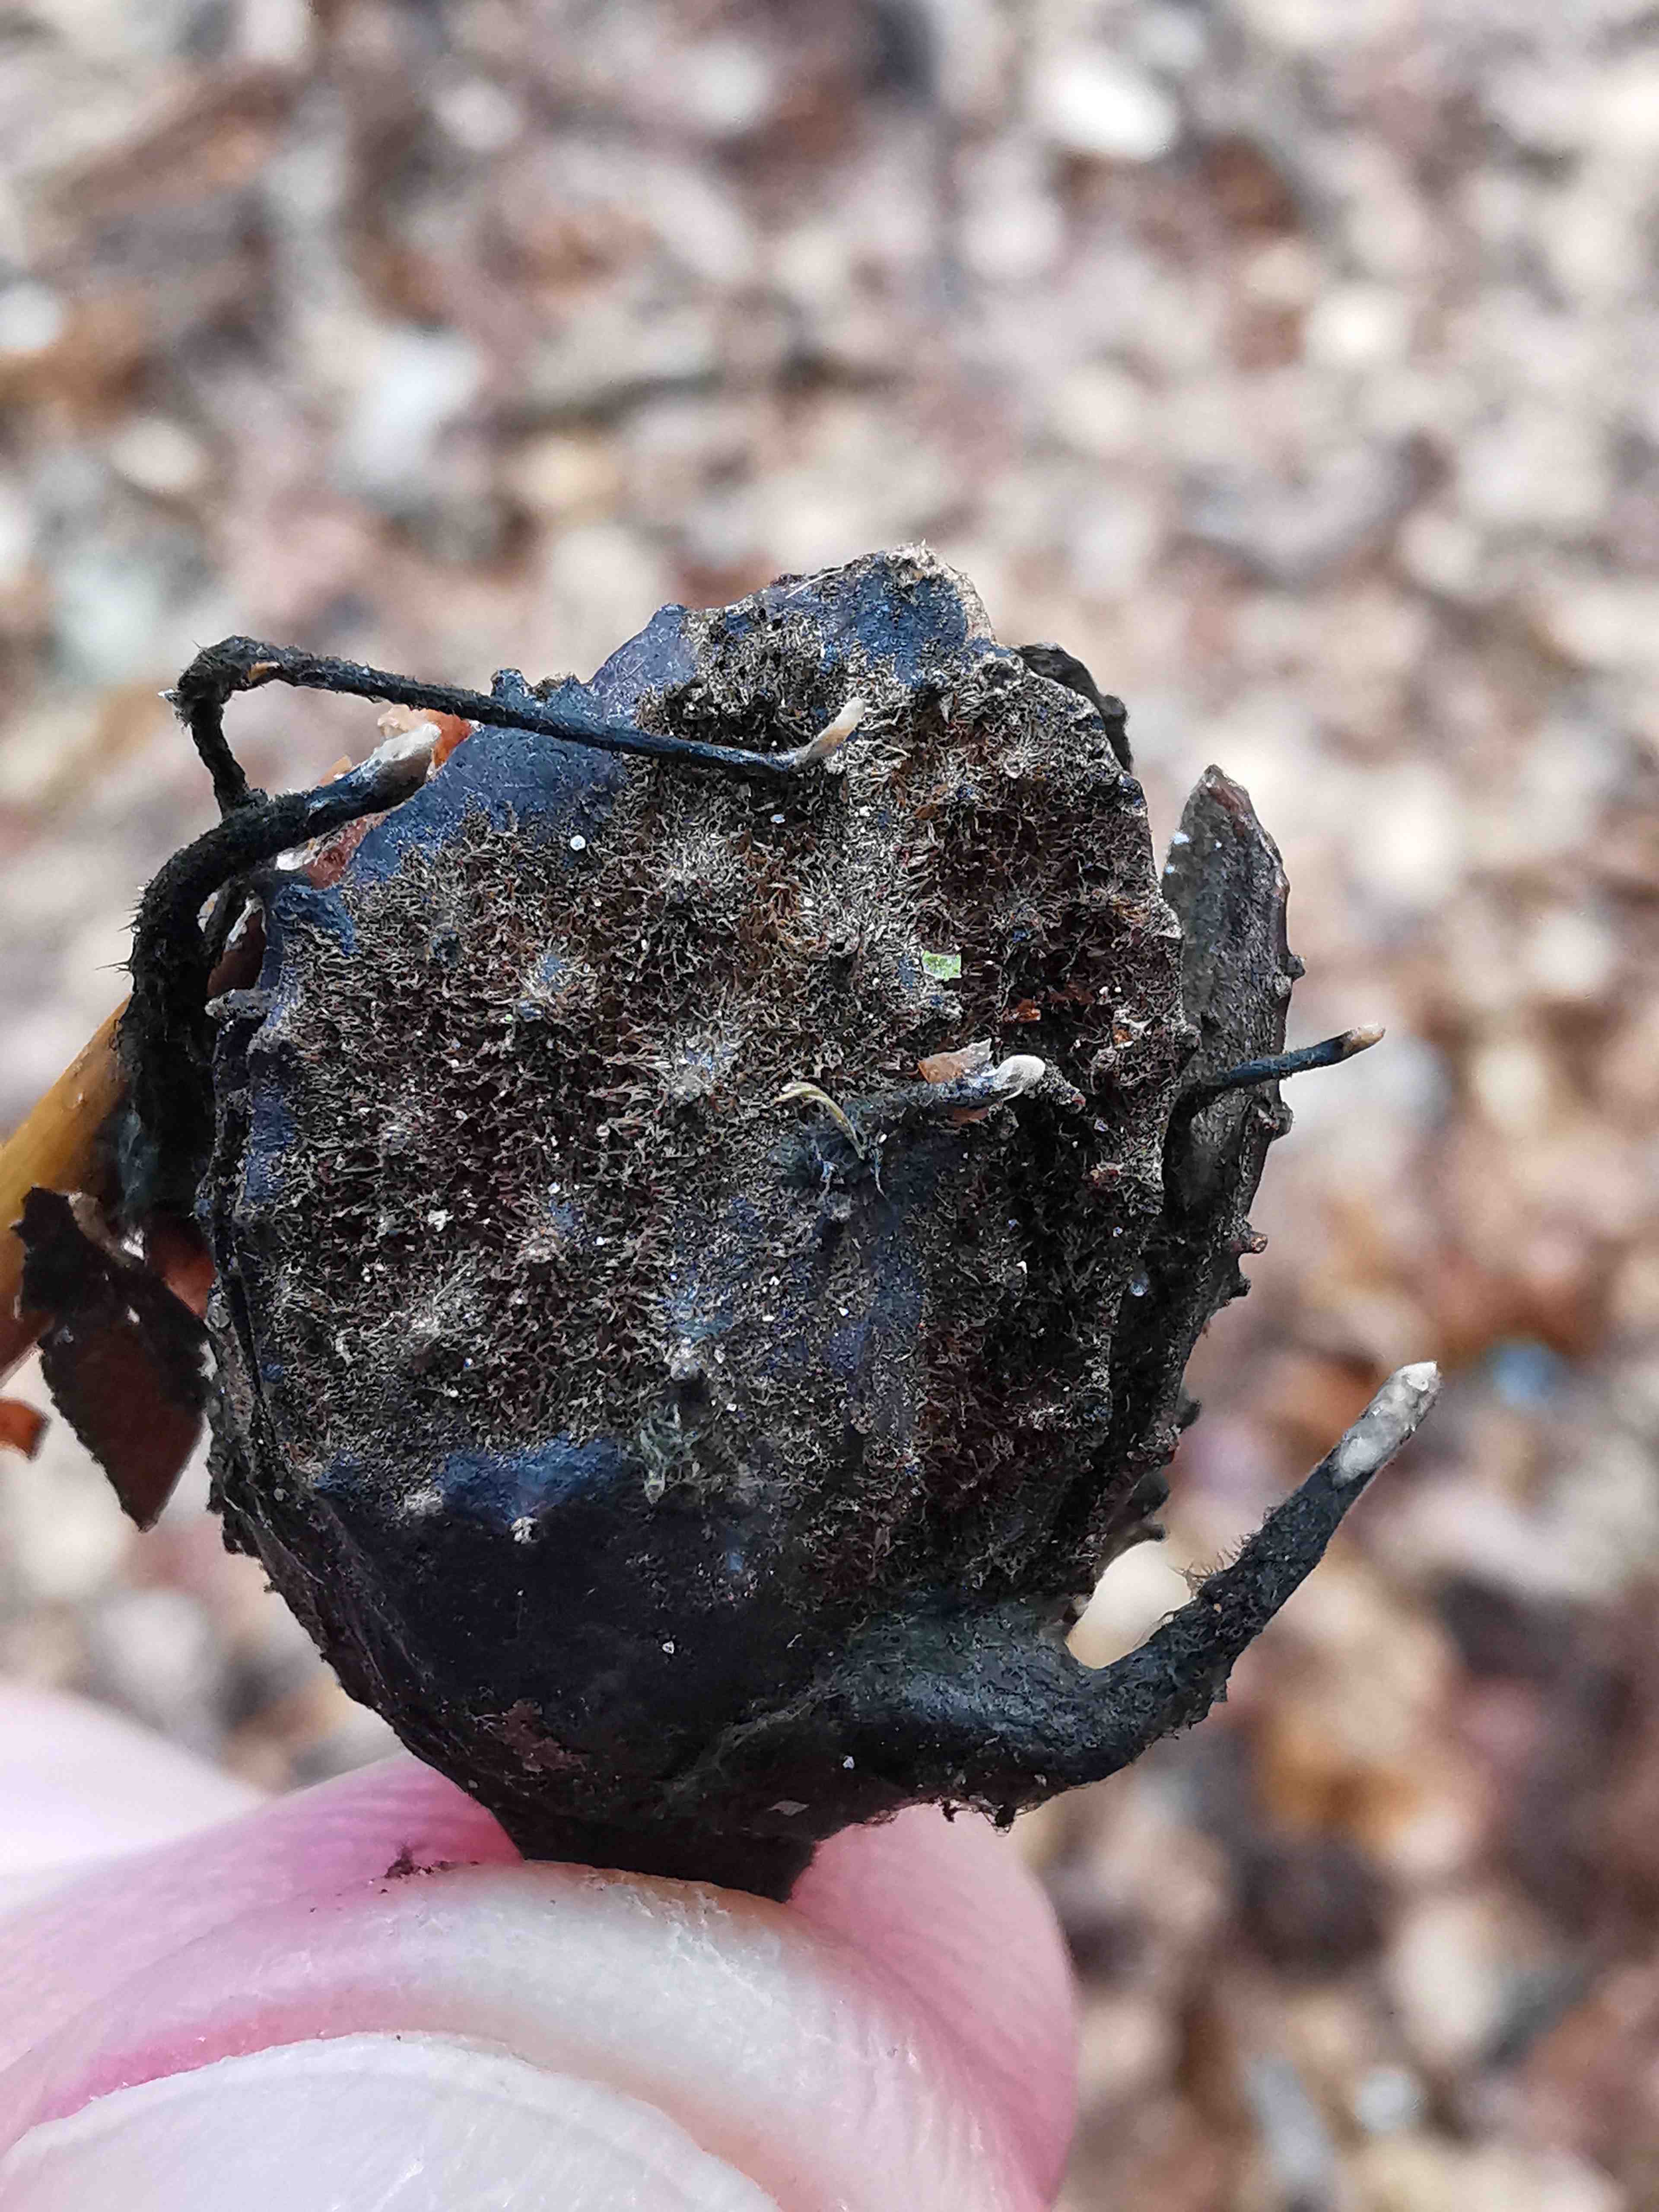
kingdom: Fungi
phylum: Ascomycota
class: Sordariomycetes
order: Xylariales
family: Xylariaceae
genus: Xylaria
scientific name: Xylaria carpophila
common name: bogskål-stødsvamp
